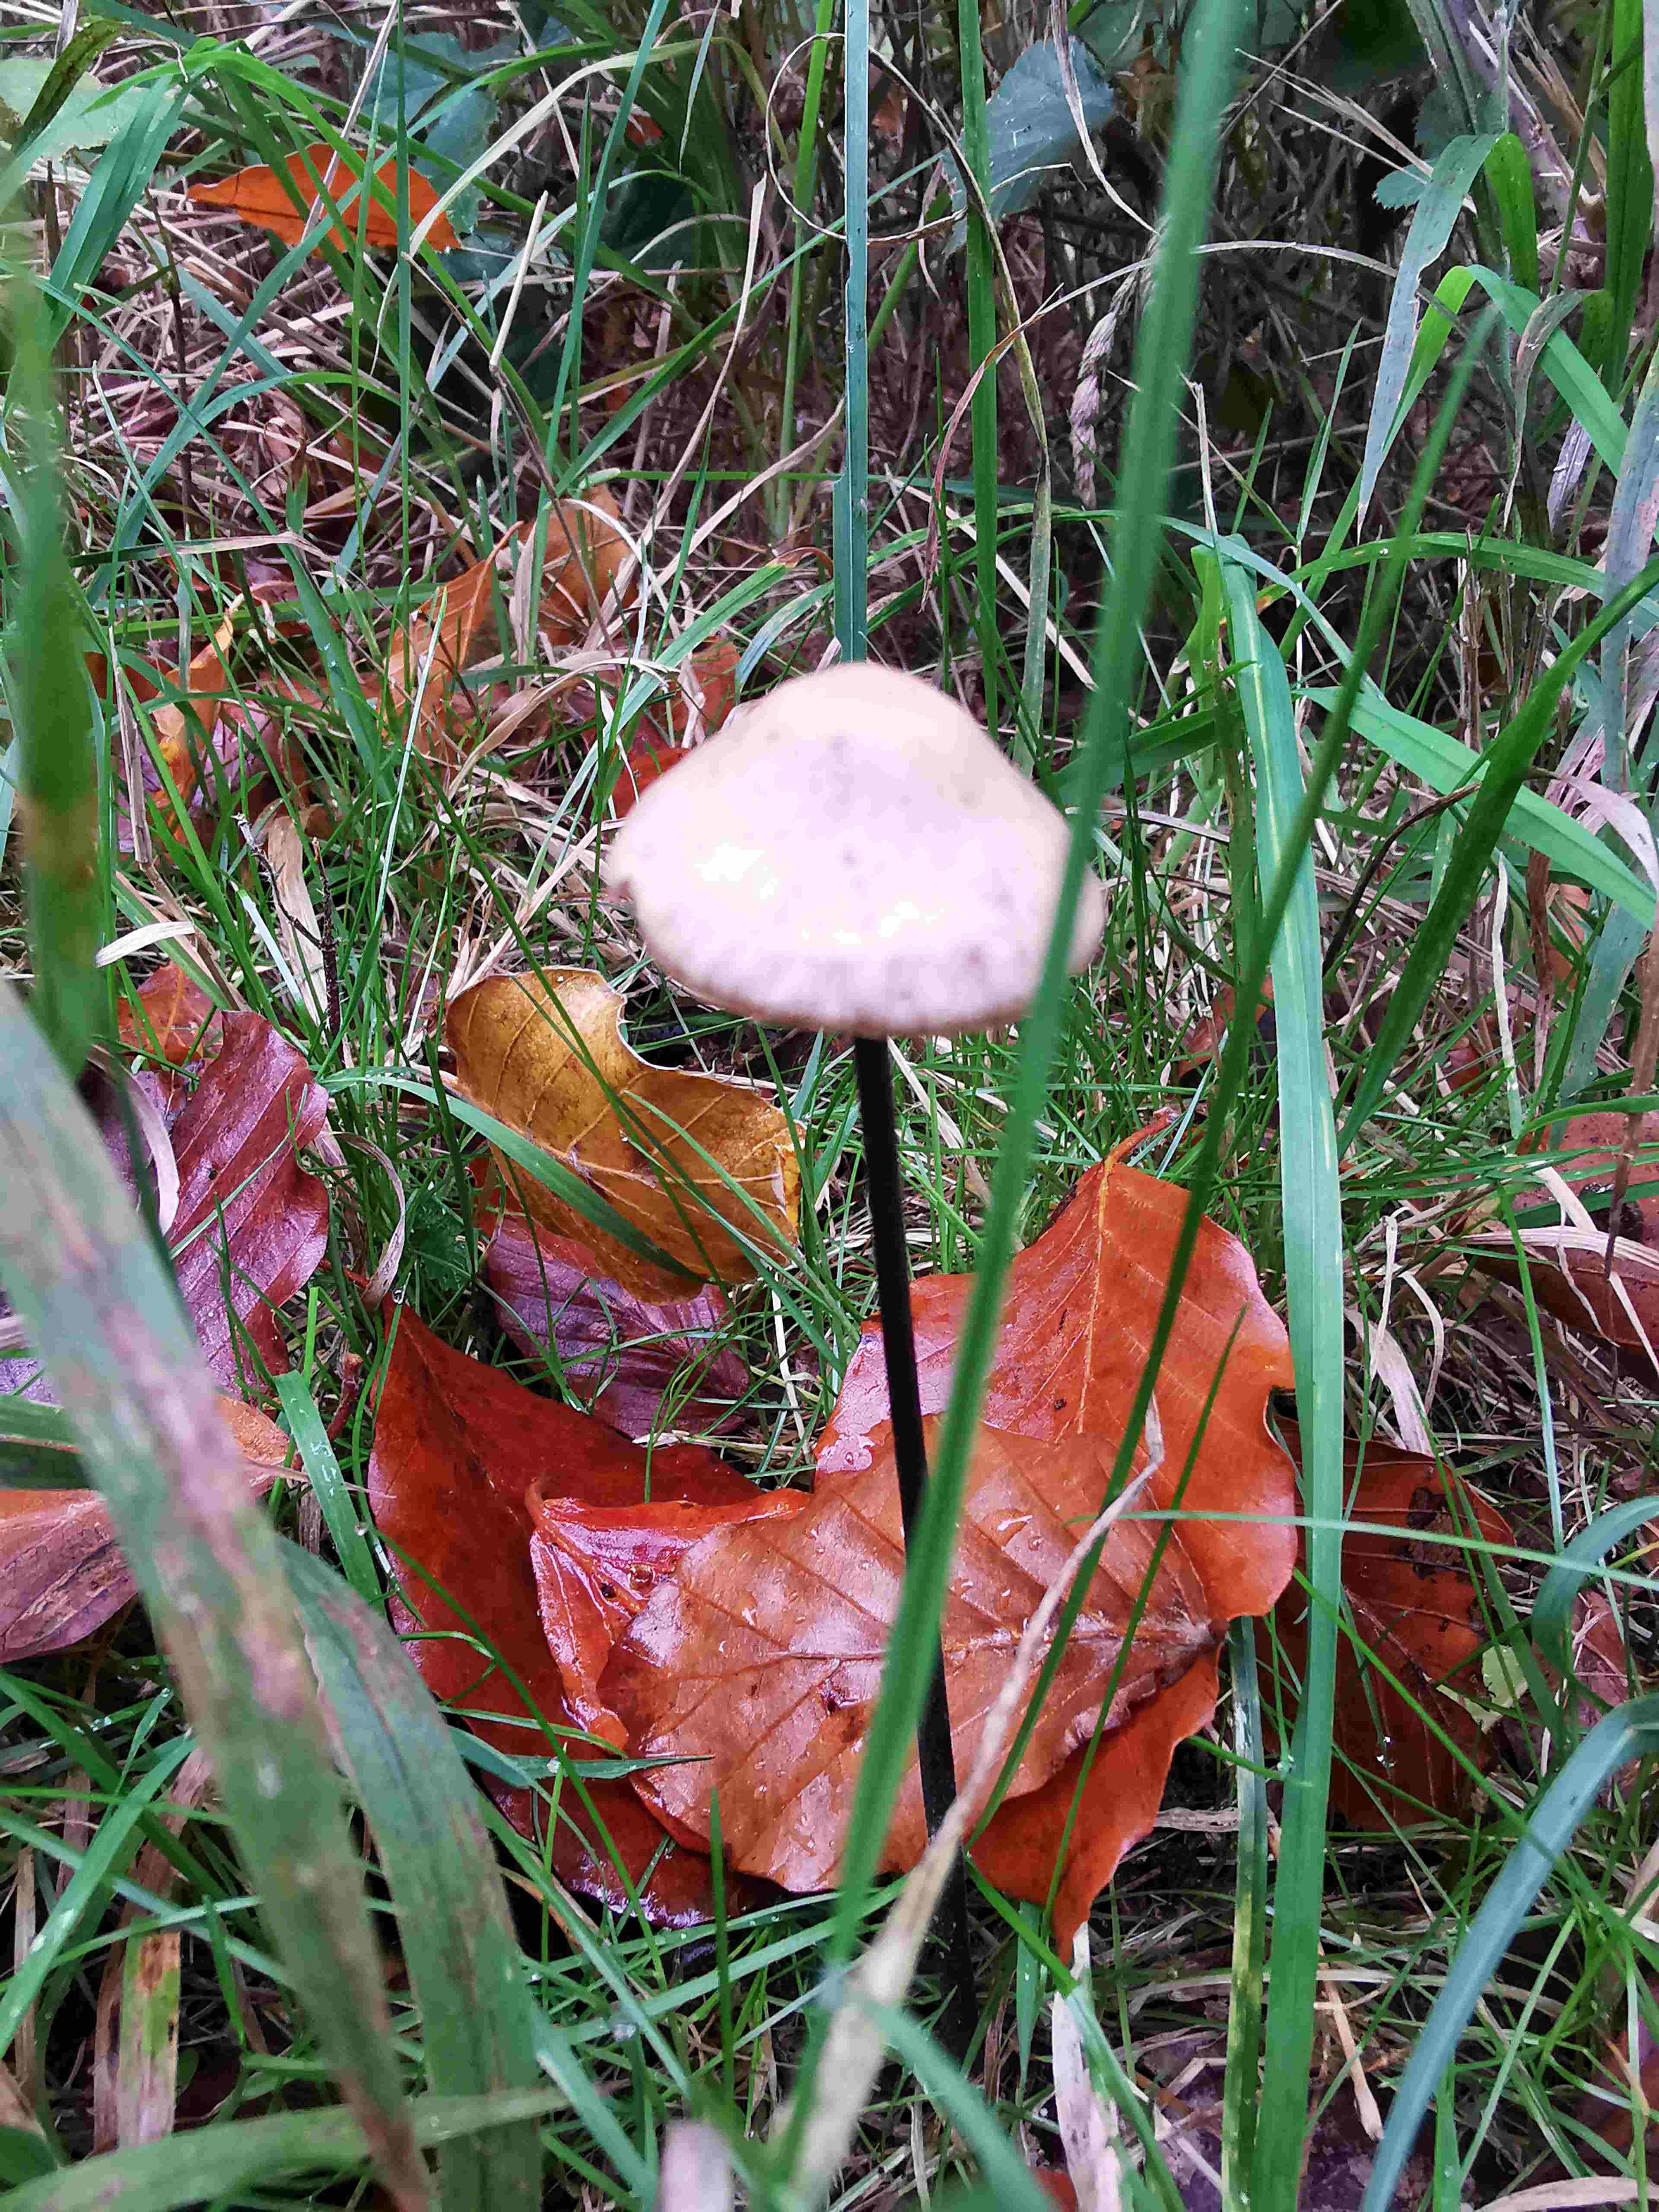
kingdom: Fungi
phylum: Basidiomycota
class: Agaricomycetes
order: Agaricales
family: Omphalotaceae
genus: Mycetinis
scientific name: Mycetinis alliaceus
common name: stor løghat
